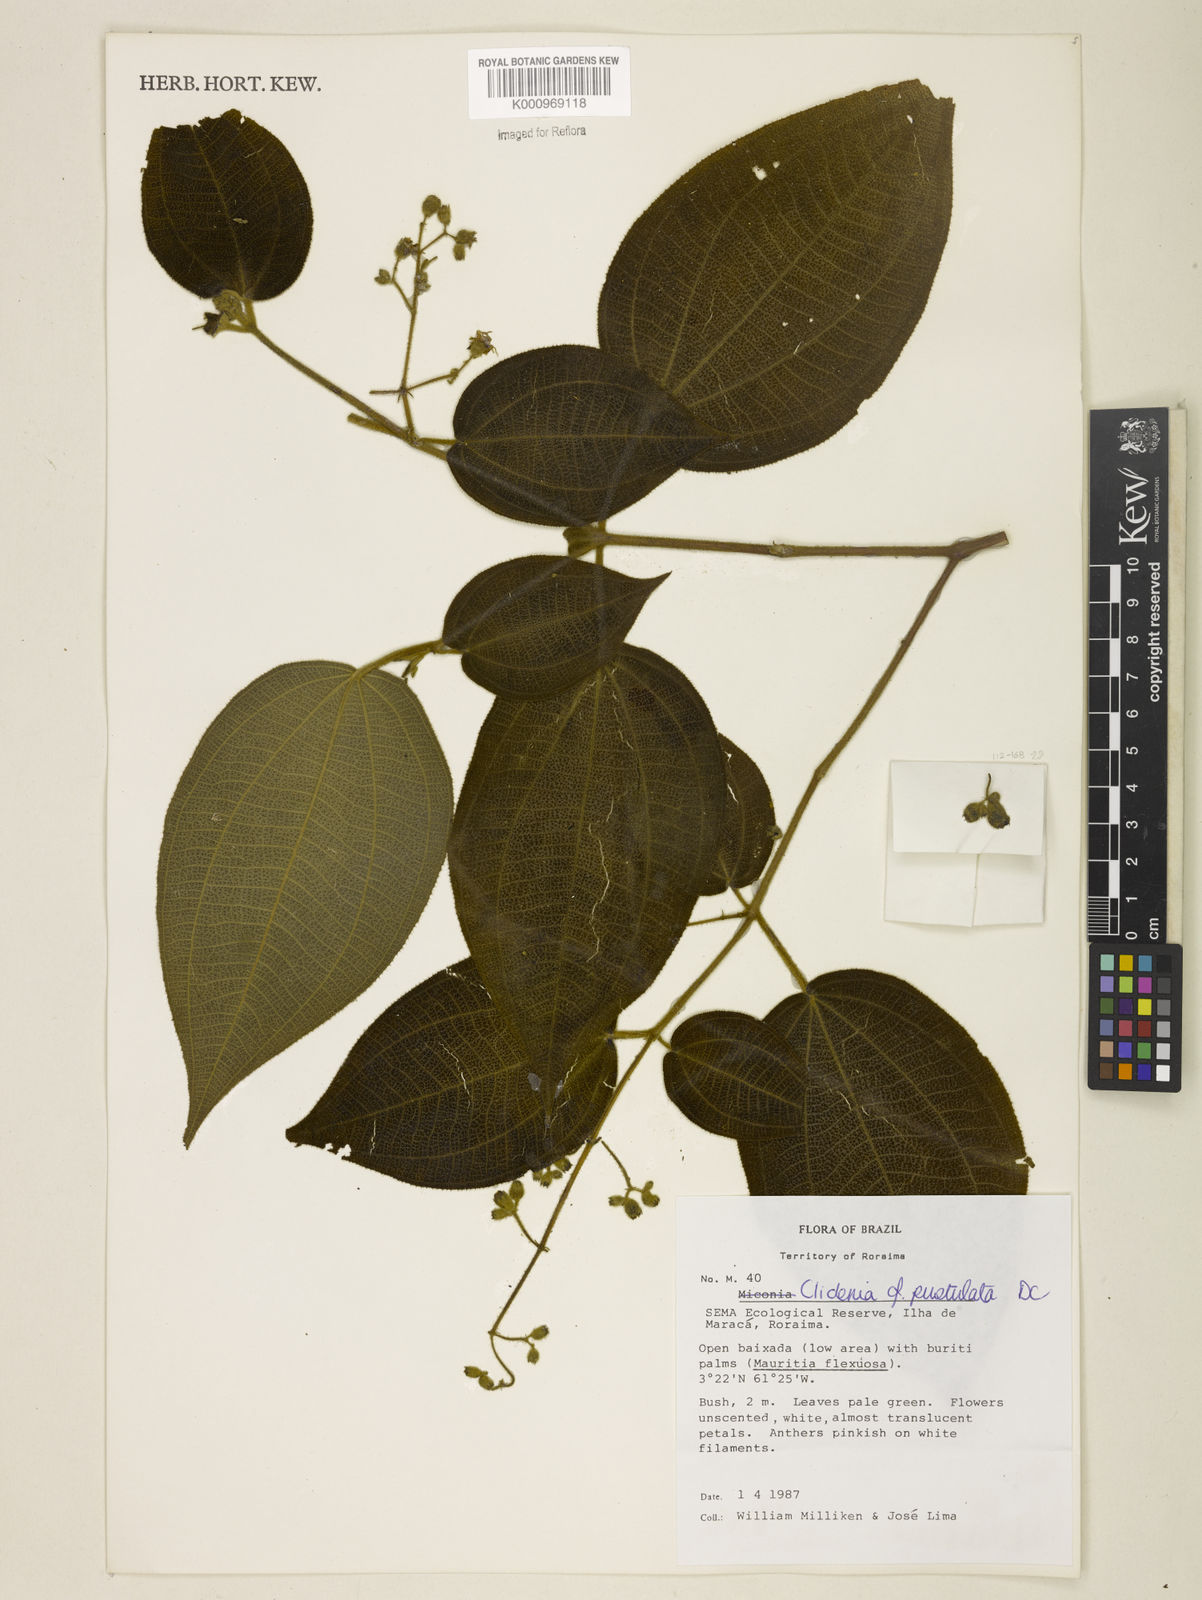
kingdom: Plantae
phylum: Tracheophyta
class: Magnoliopsida
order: Myrtales
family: Melastomataceae
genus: Miconia
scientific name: Miconia fenestrata
